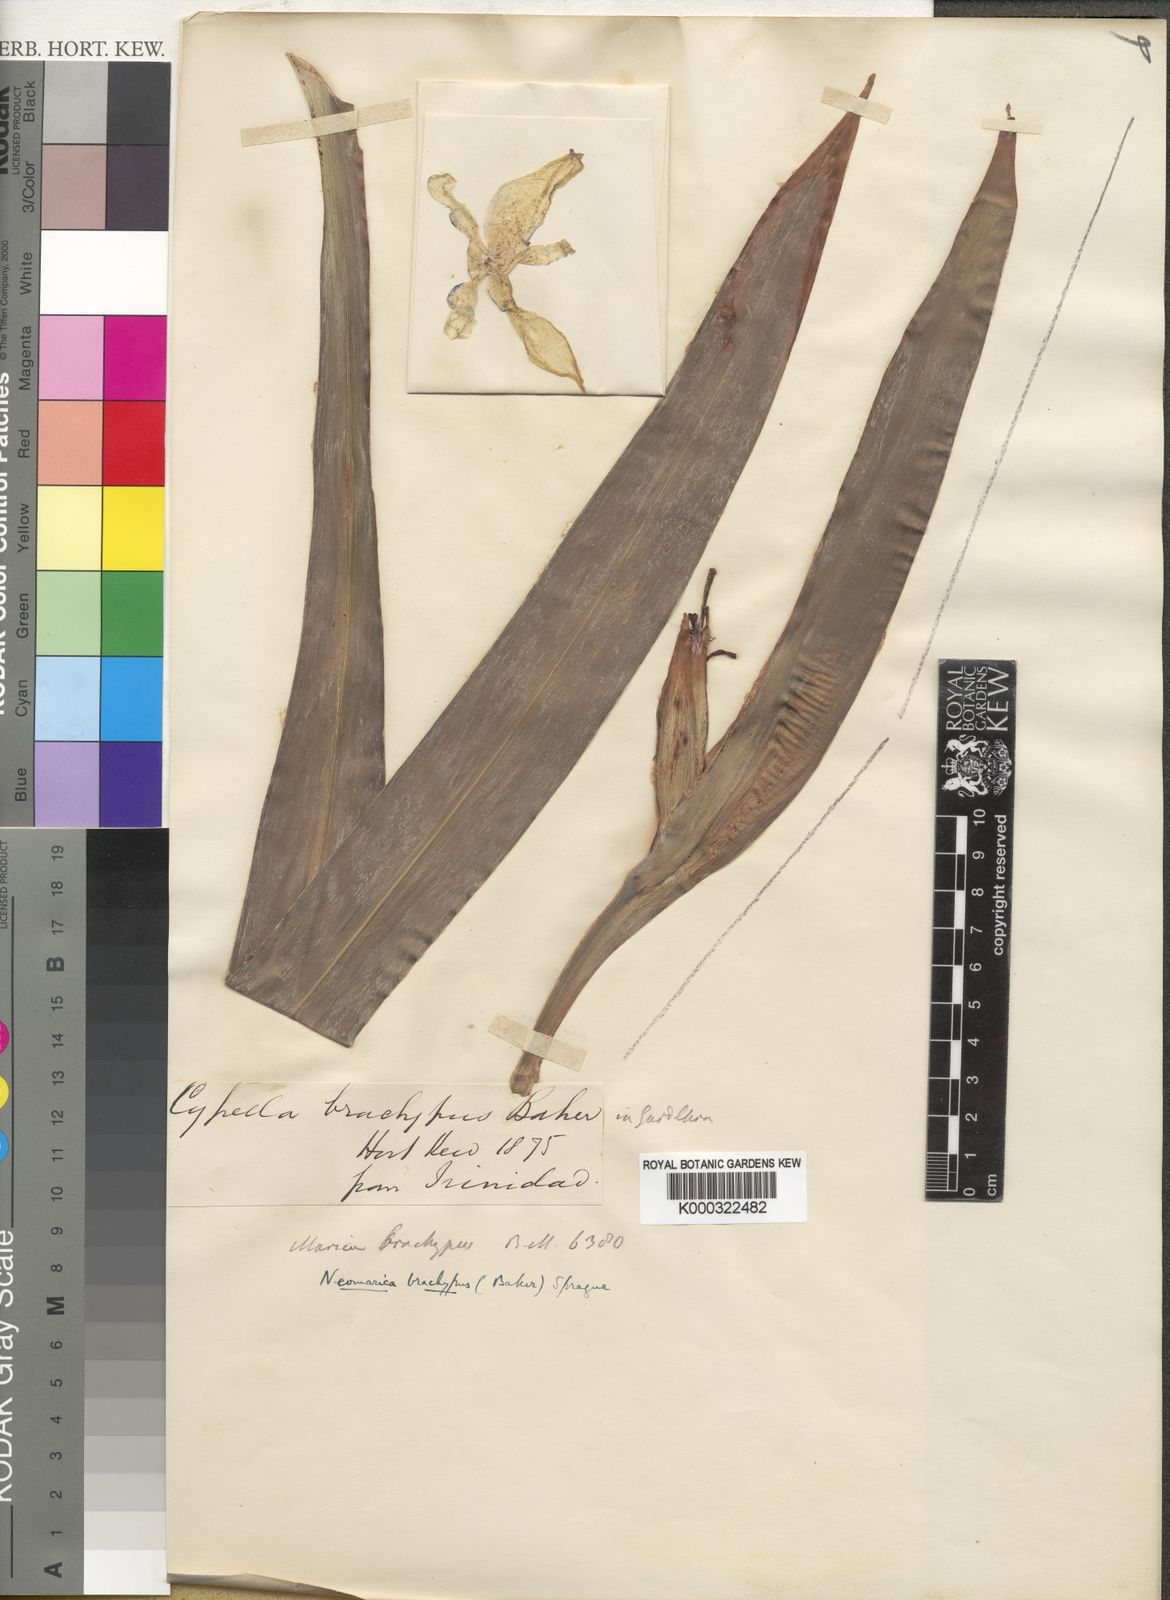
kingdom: Plantae
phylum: Tracheophyta
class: Liliopsida
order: Asparagales
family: Iridaceae
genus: Trimezia
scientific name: Trimezia brachypus
